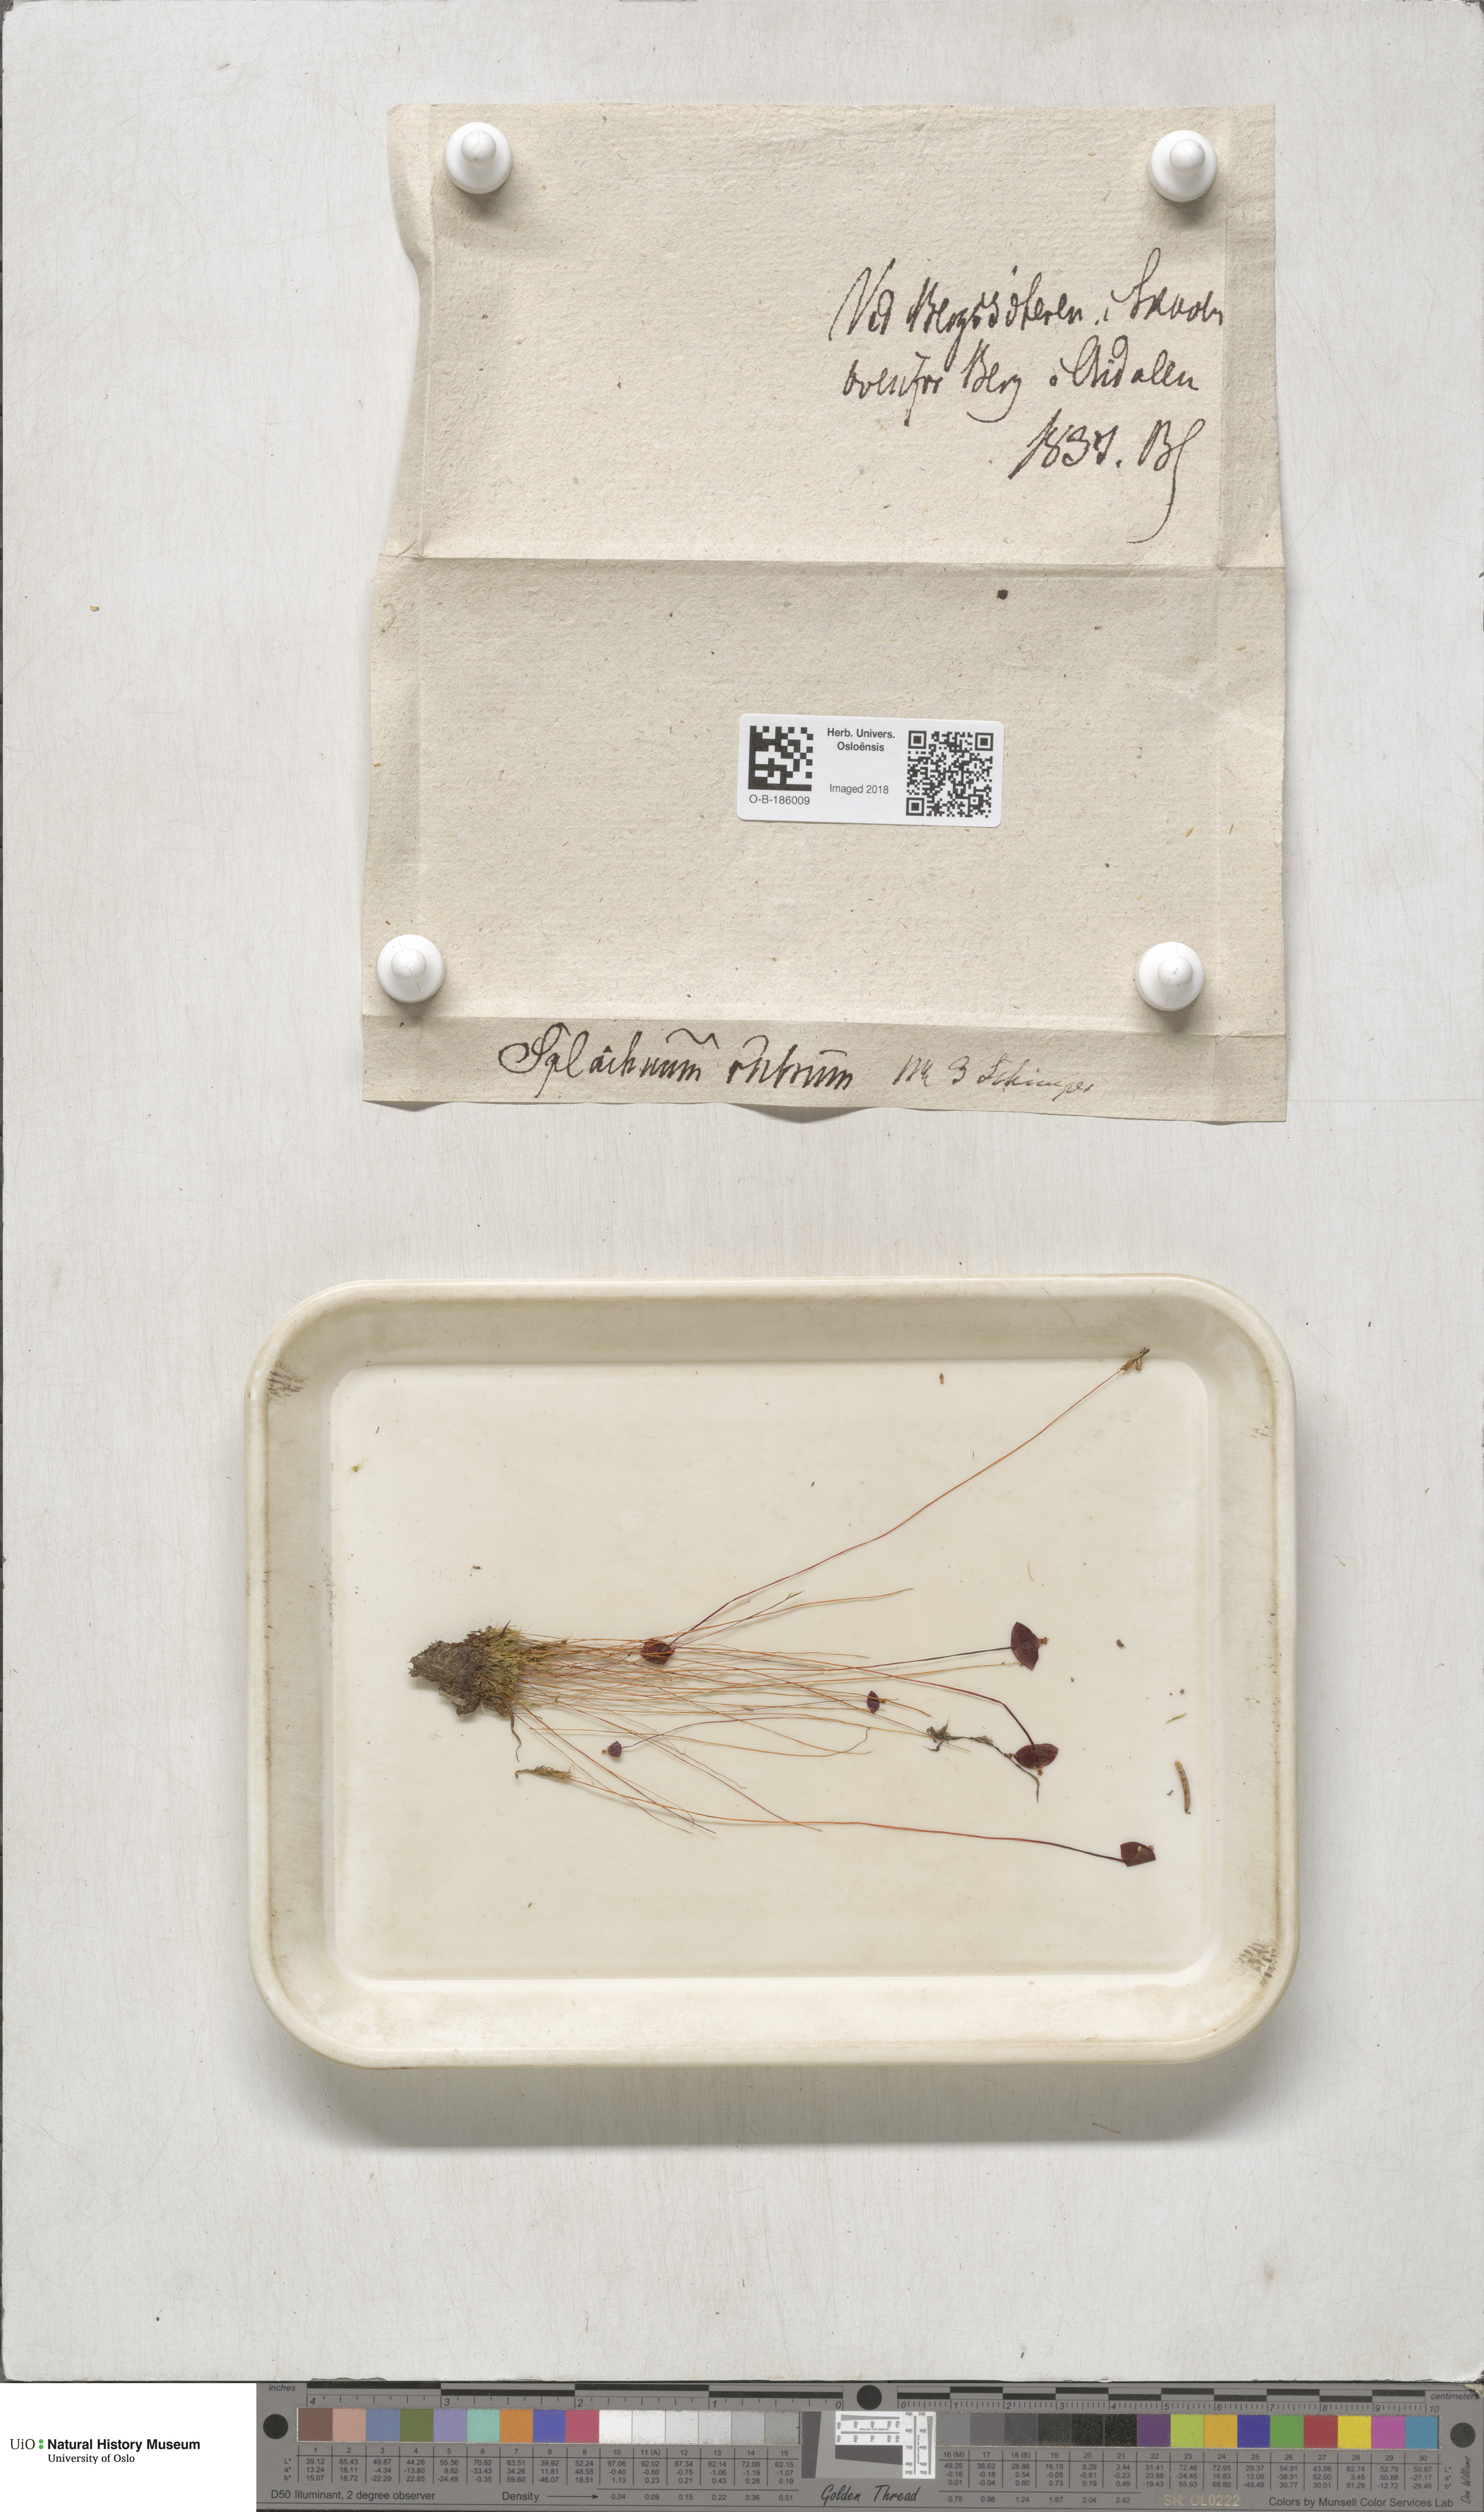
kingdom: Plantae
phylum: Bryophyta
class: Bryopsida
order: Splachnales
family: Splachnaceae
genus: Splachnum
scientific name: Splachnum rubrum
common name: Red dung moss
